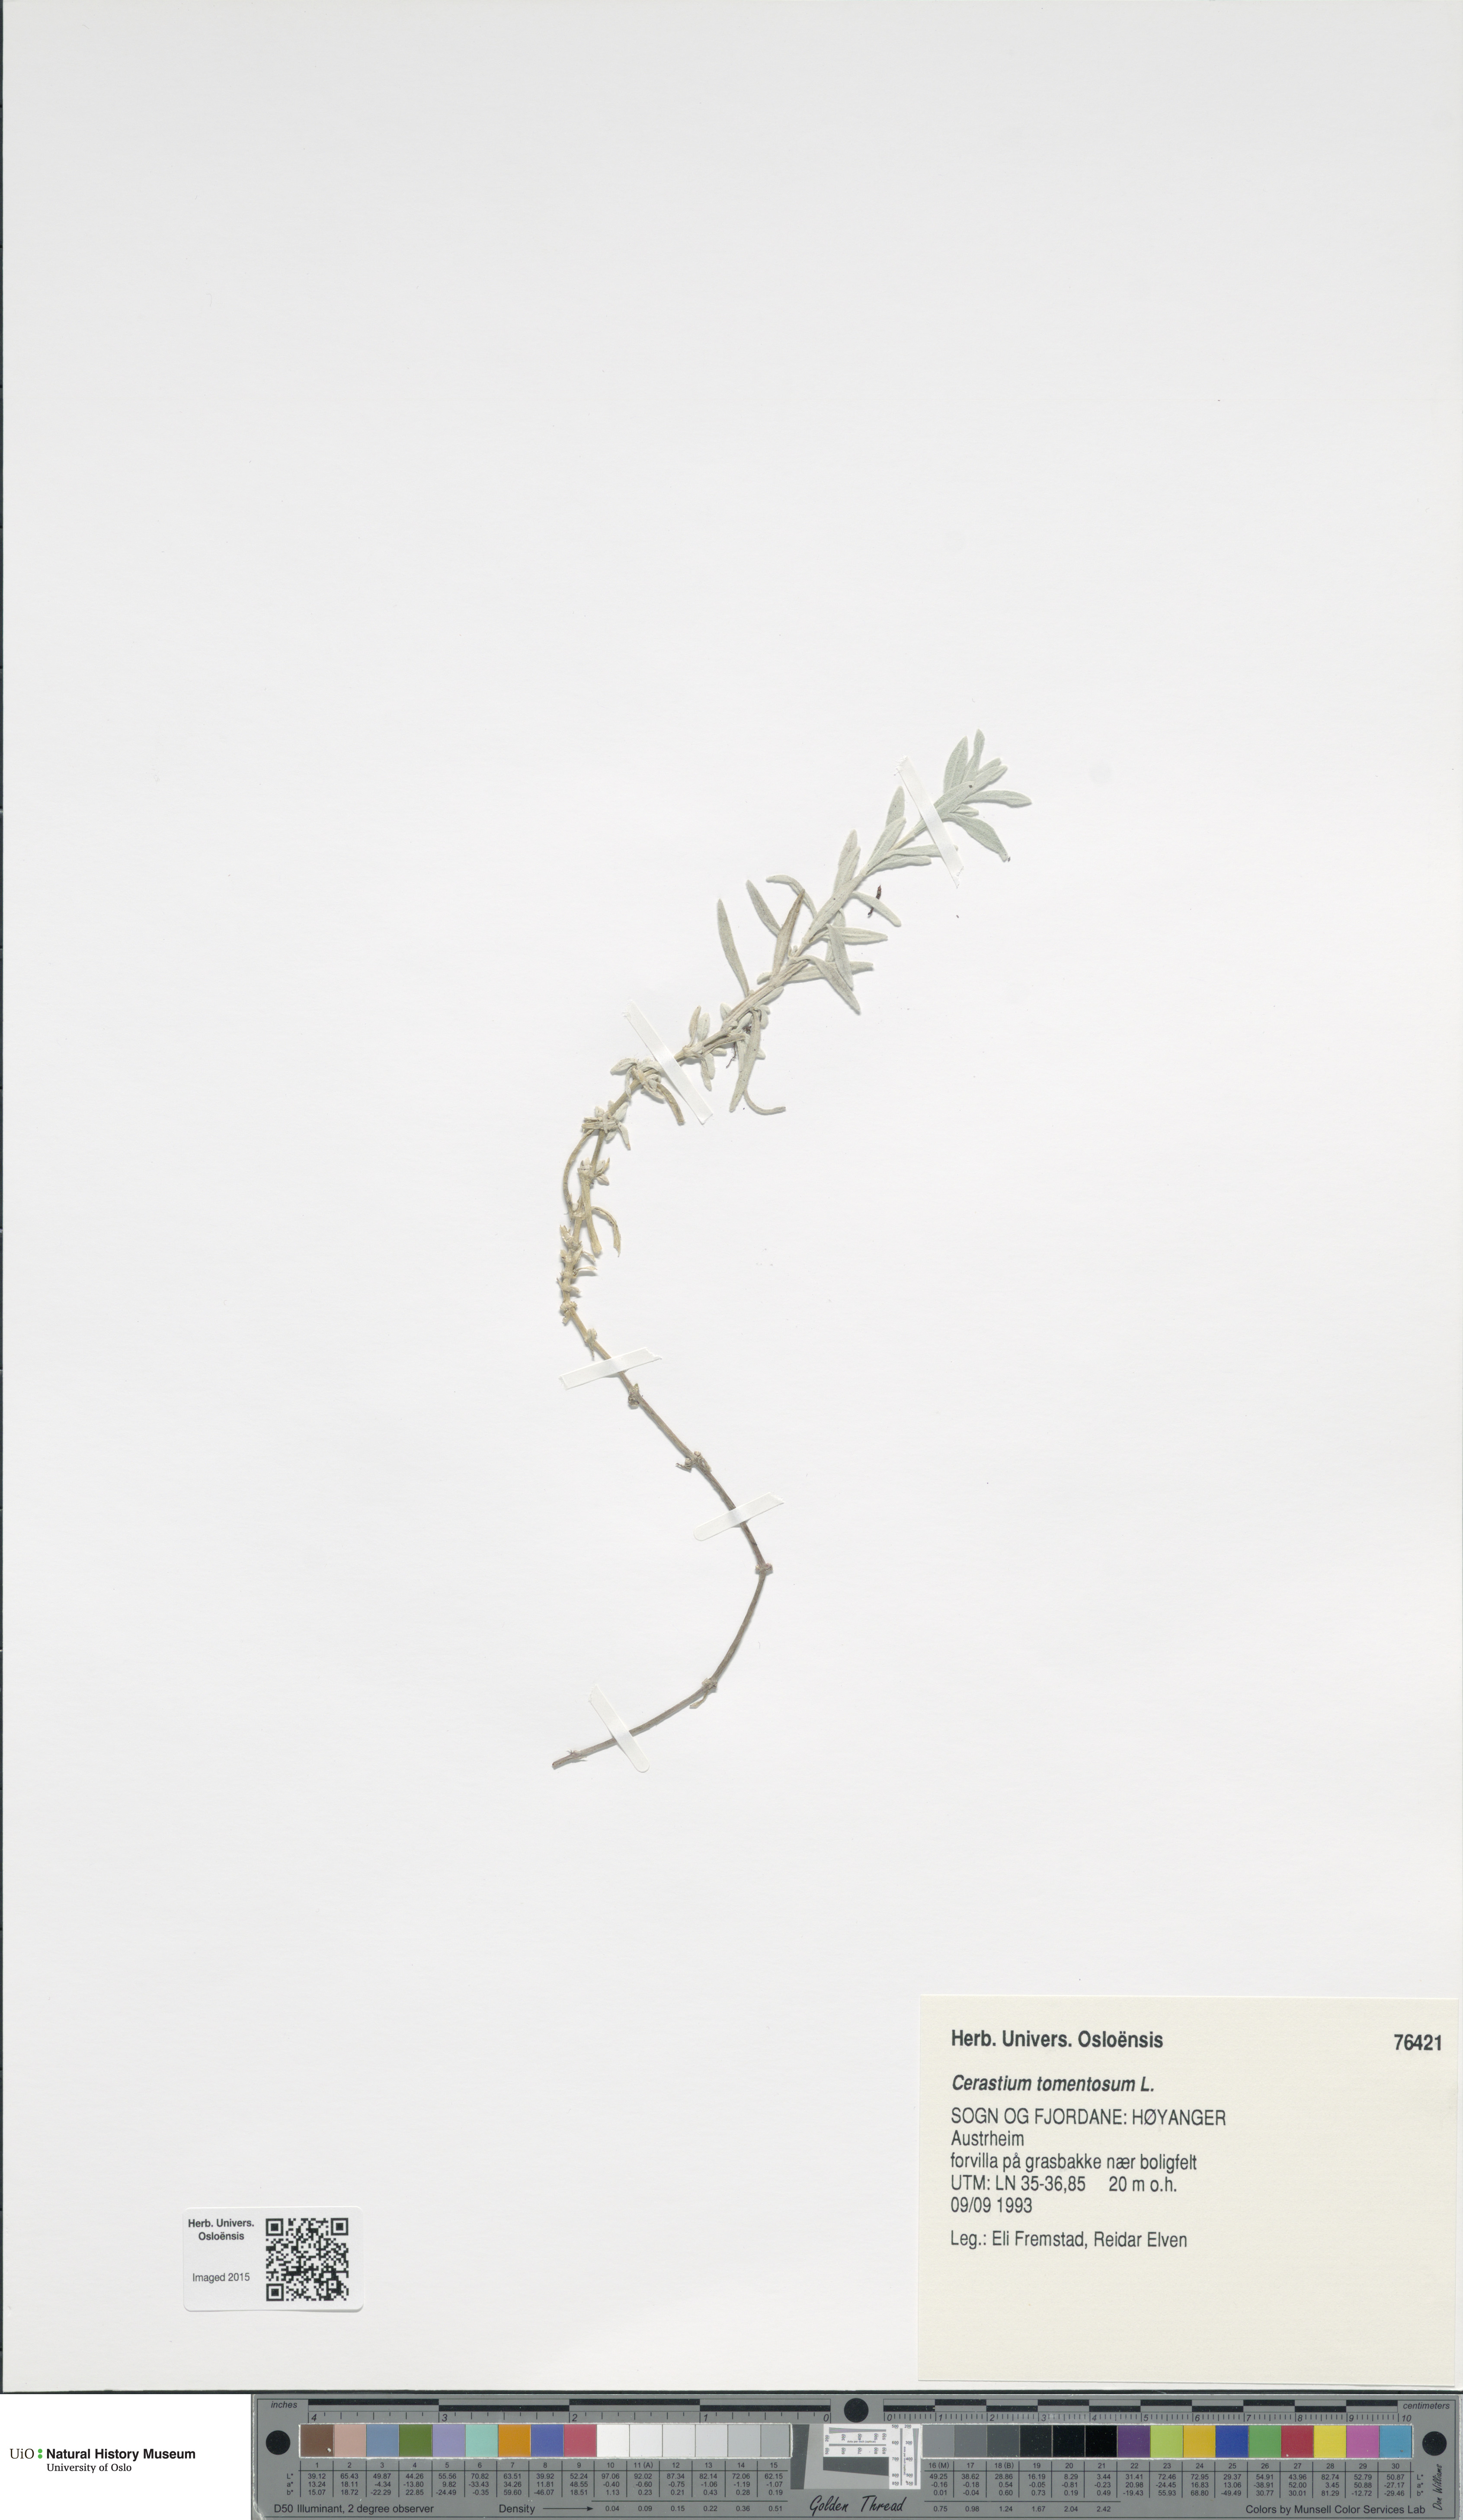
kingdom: Plantae
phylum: Tracheophyta
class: Magnoliopsida
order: Caryophyllales
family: Caryophyllaceae
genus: Cerastium
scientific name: Cerastium tomentosum
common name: Snow-in-summer
